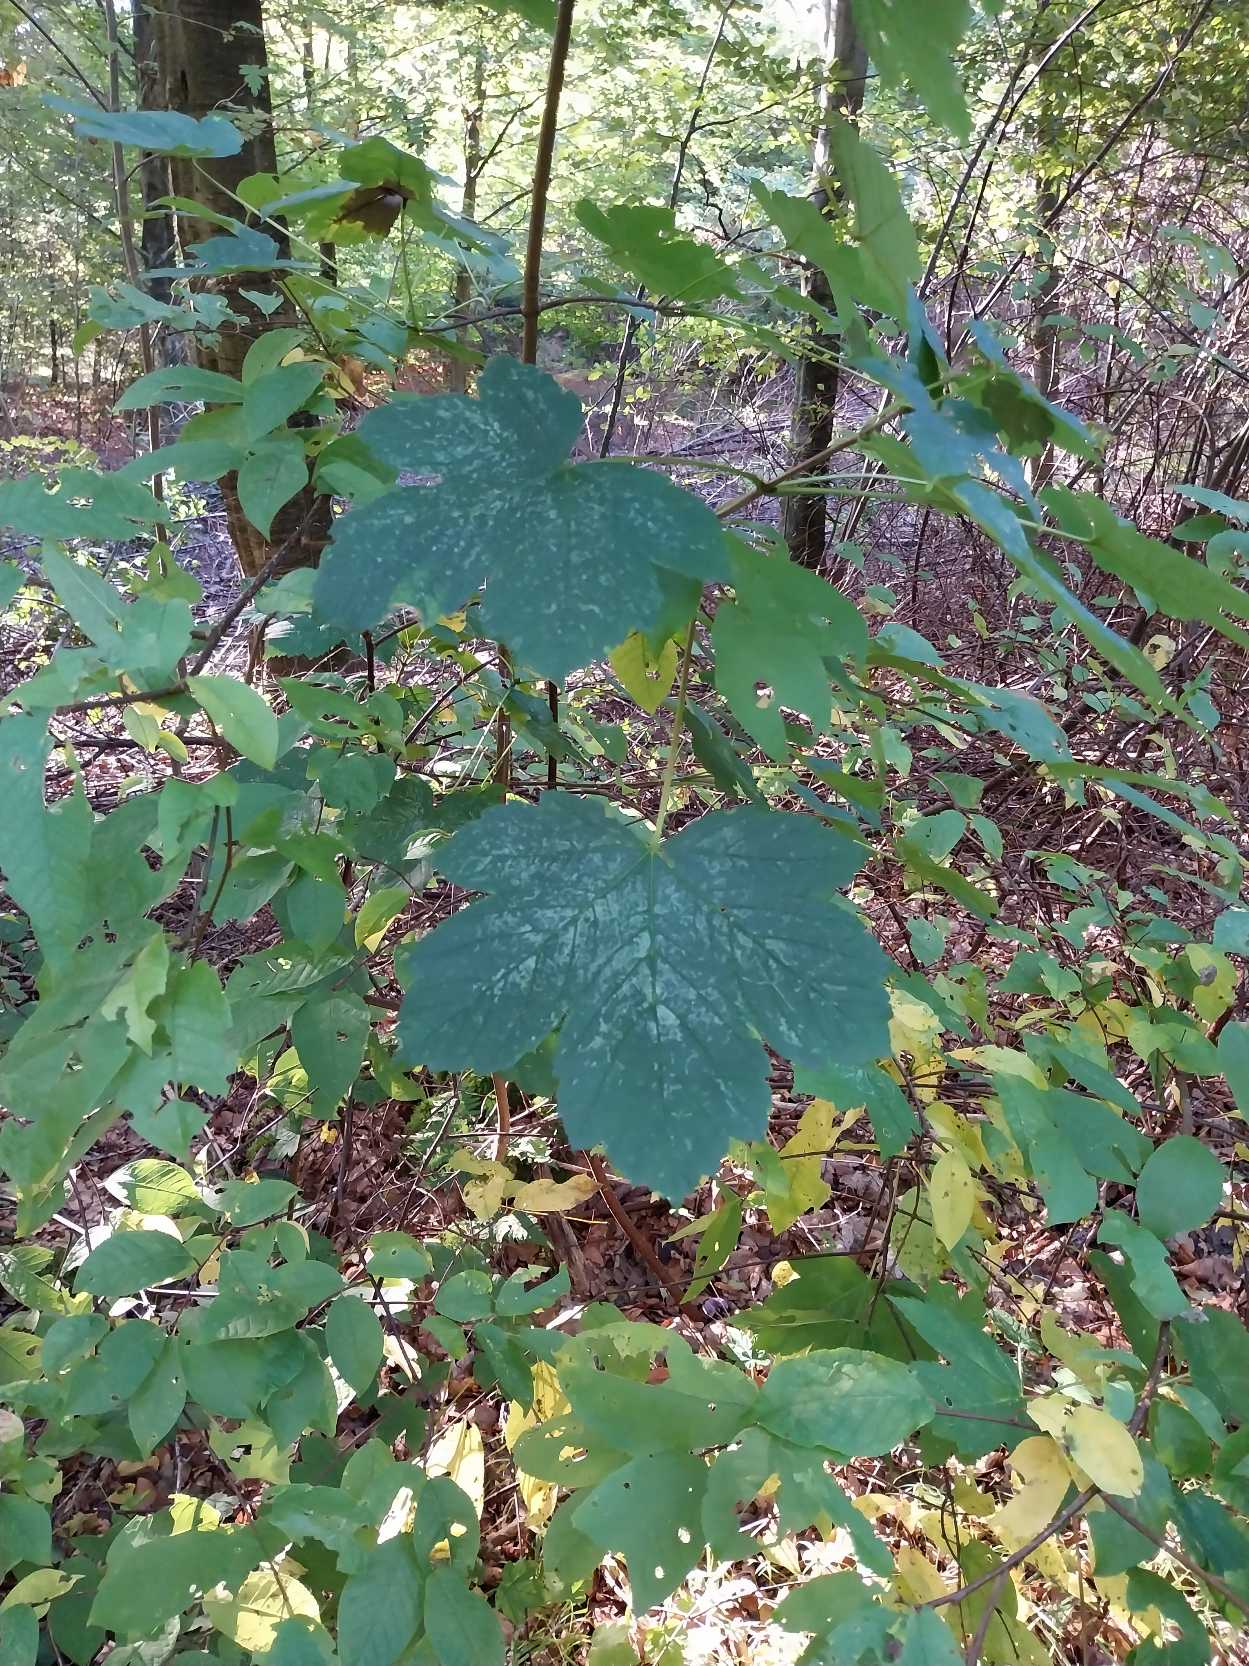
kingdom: Plantae
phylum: Tracheophyta
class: Magnoliopsida
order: Sapindales
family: Sapindaceae
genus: Acer
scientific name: Acer pseudoplatanus
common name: Ahorn
